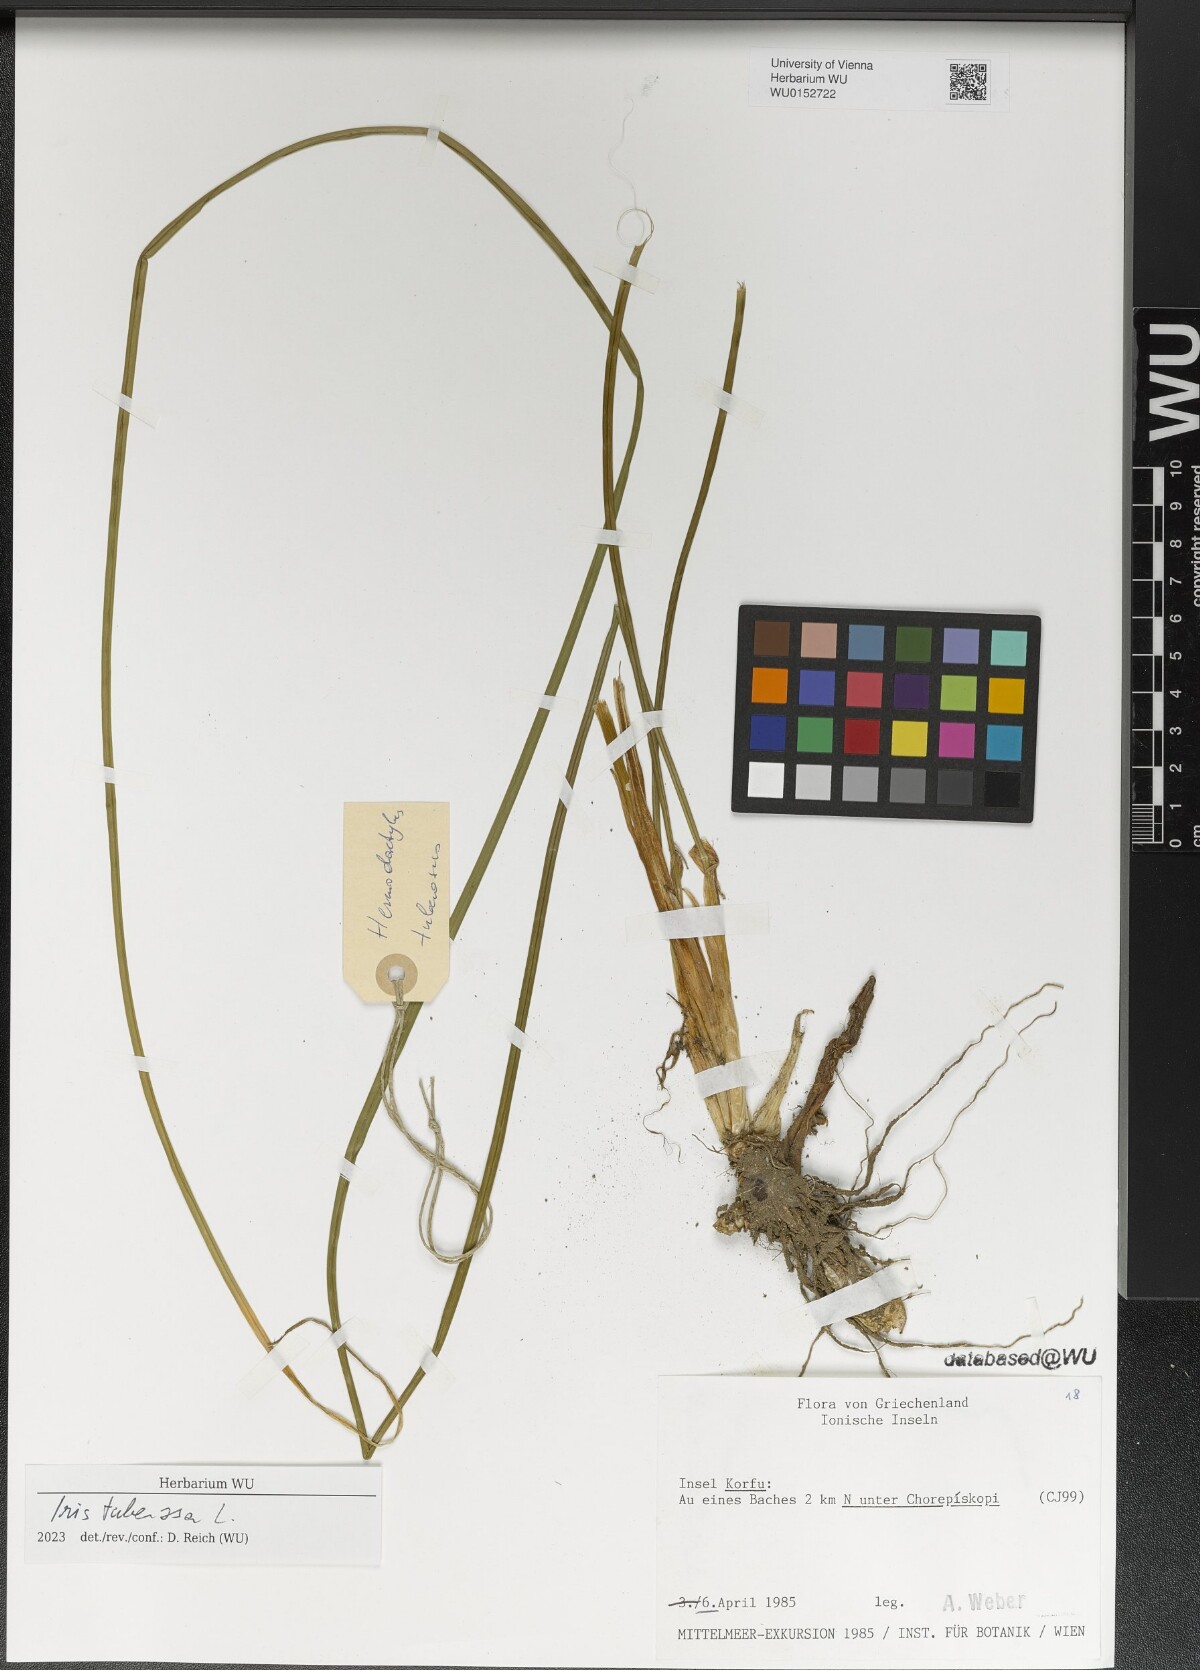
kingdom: Plantae
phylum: Tracheophyta
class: Liliopsida
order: Asparagales
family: Iridaceae
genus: Iris
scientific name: Iris tuberosa
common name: Snake's-head iris
